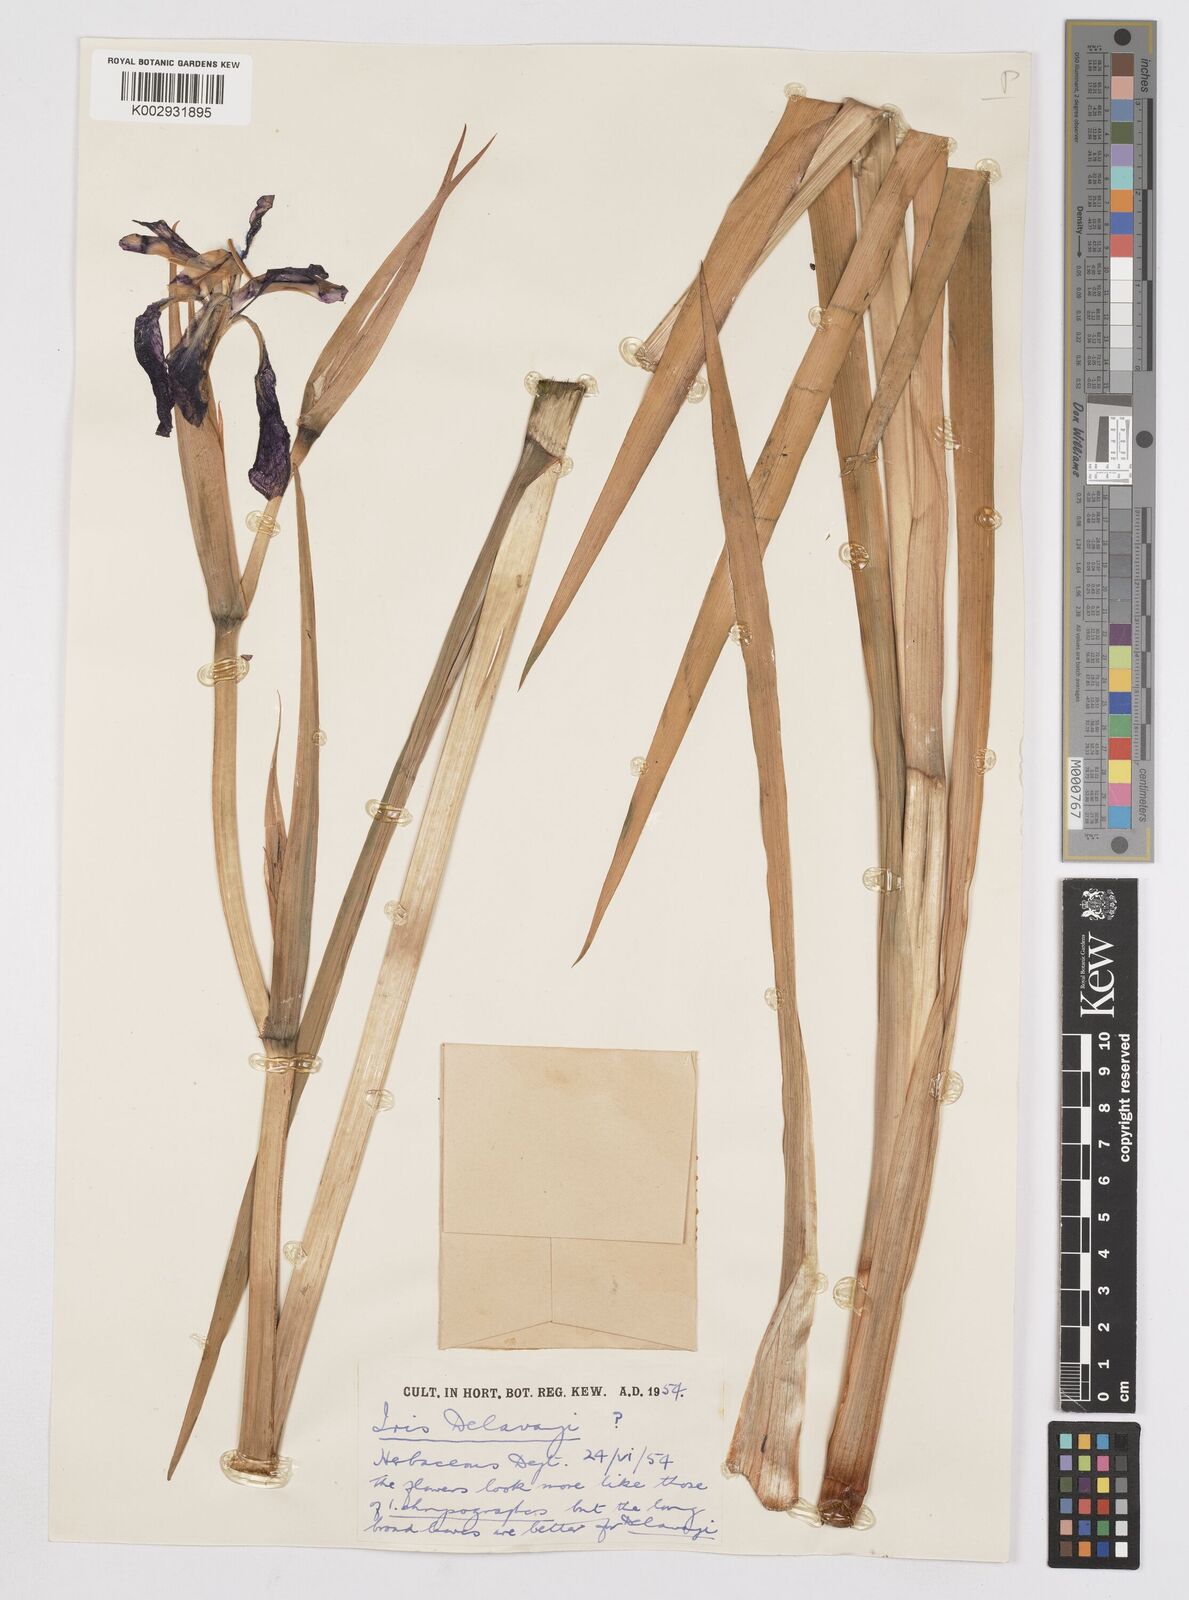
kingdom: Plantae
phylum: Tracheophyta
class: Liliopsida
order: Asparagales
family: Iridaceae
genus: Iris
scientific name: Iris delavayi
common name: Long-scape iris
